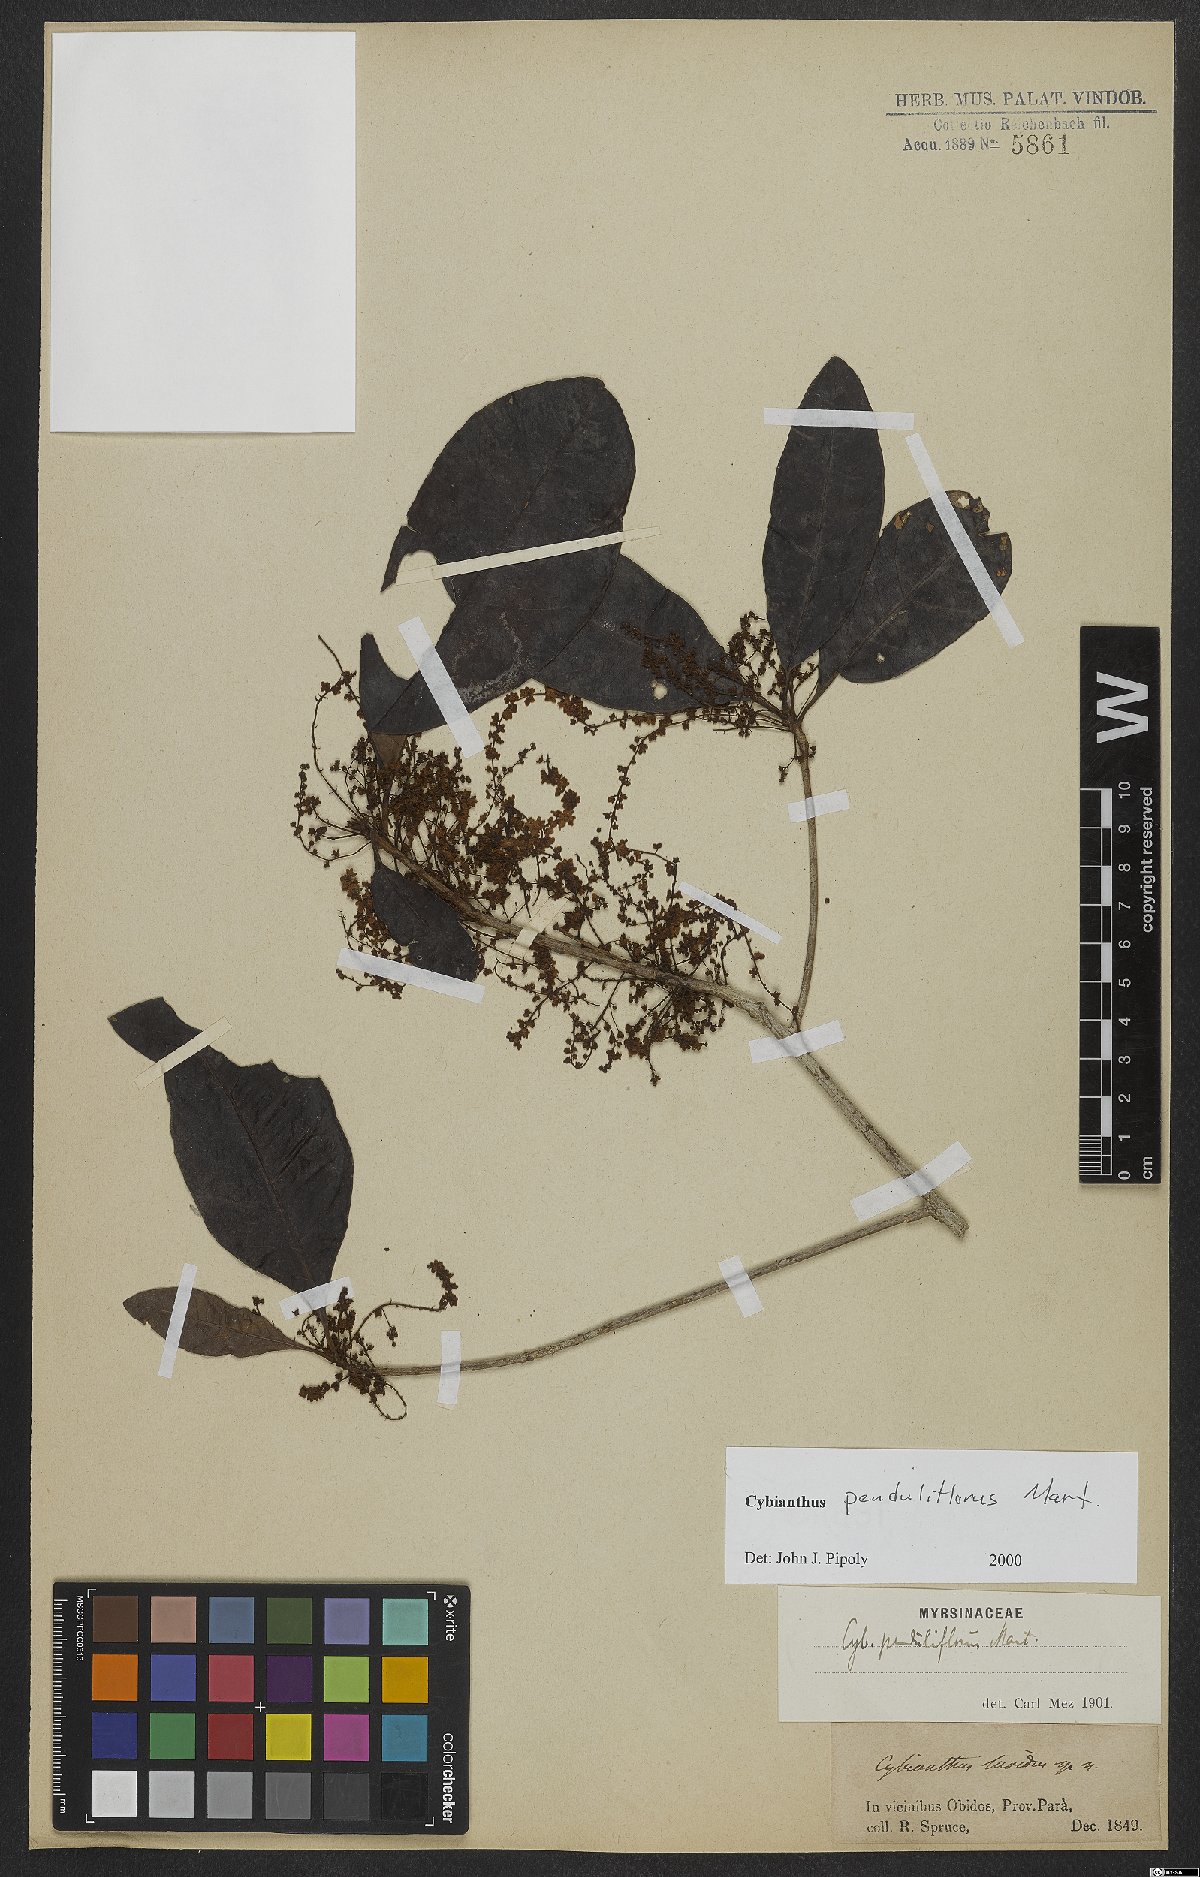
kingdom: Plantae
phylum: Tracheophyta
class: Magnoliopsida
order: Ericales
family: Primulaceae
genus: Cybianthus
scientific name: Cybianthus penduliflorus
